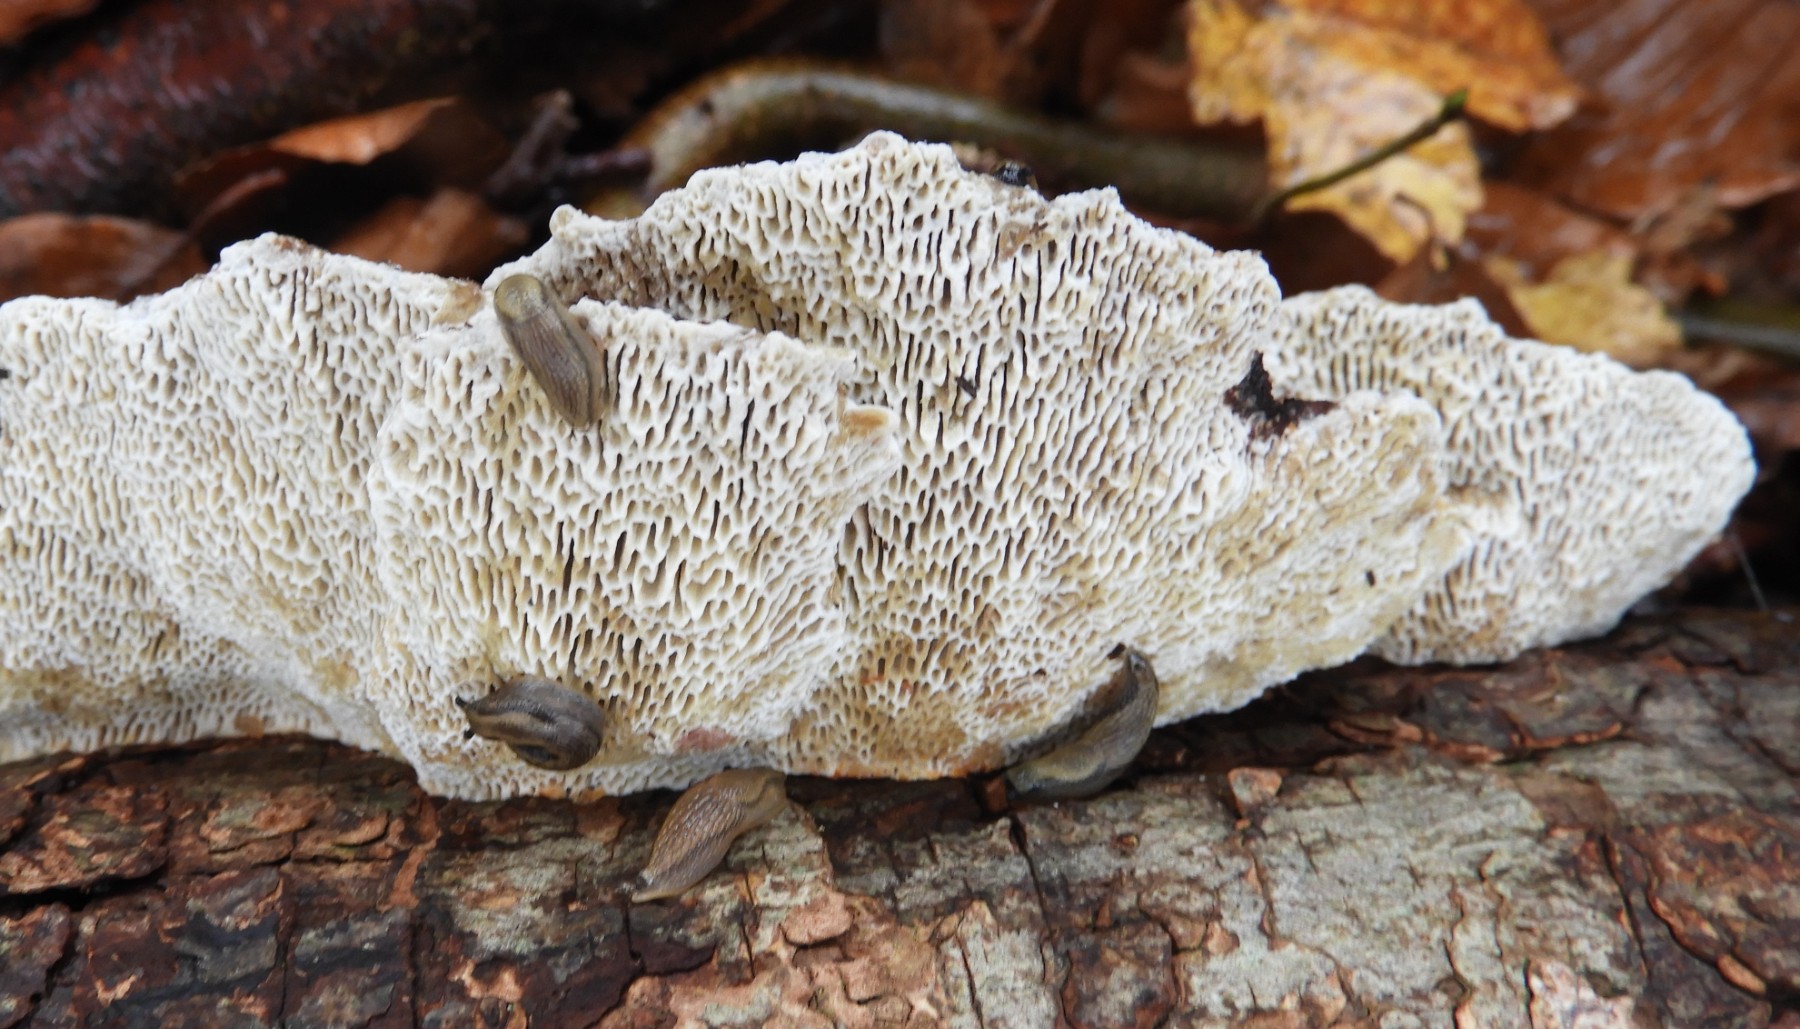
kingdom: Fungi
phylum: Basidiomycota
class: Agaricomycetes
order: Polyporales
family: Polyporaceae
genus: Daedaleopsis
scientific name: Daedaleopsis confragosa
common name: rødmende læderporesvamp
